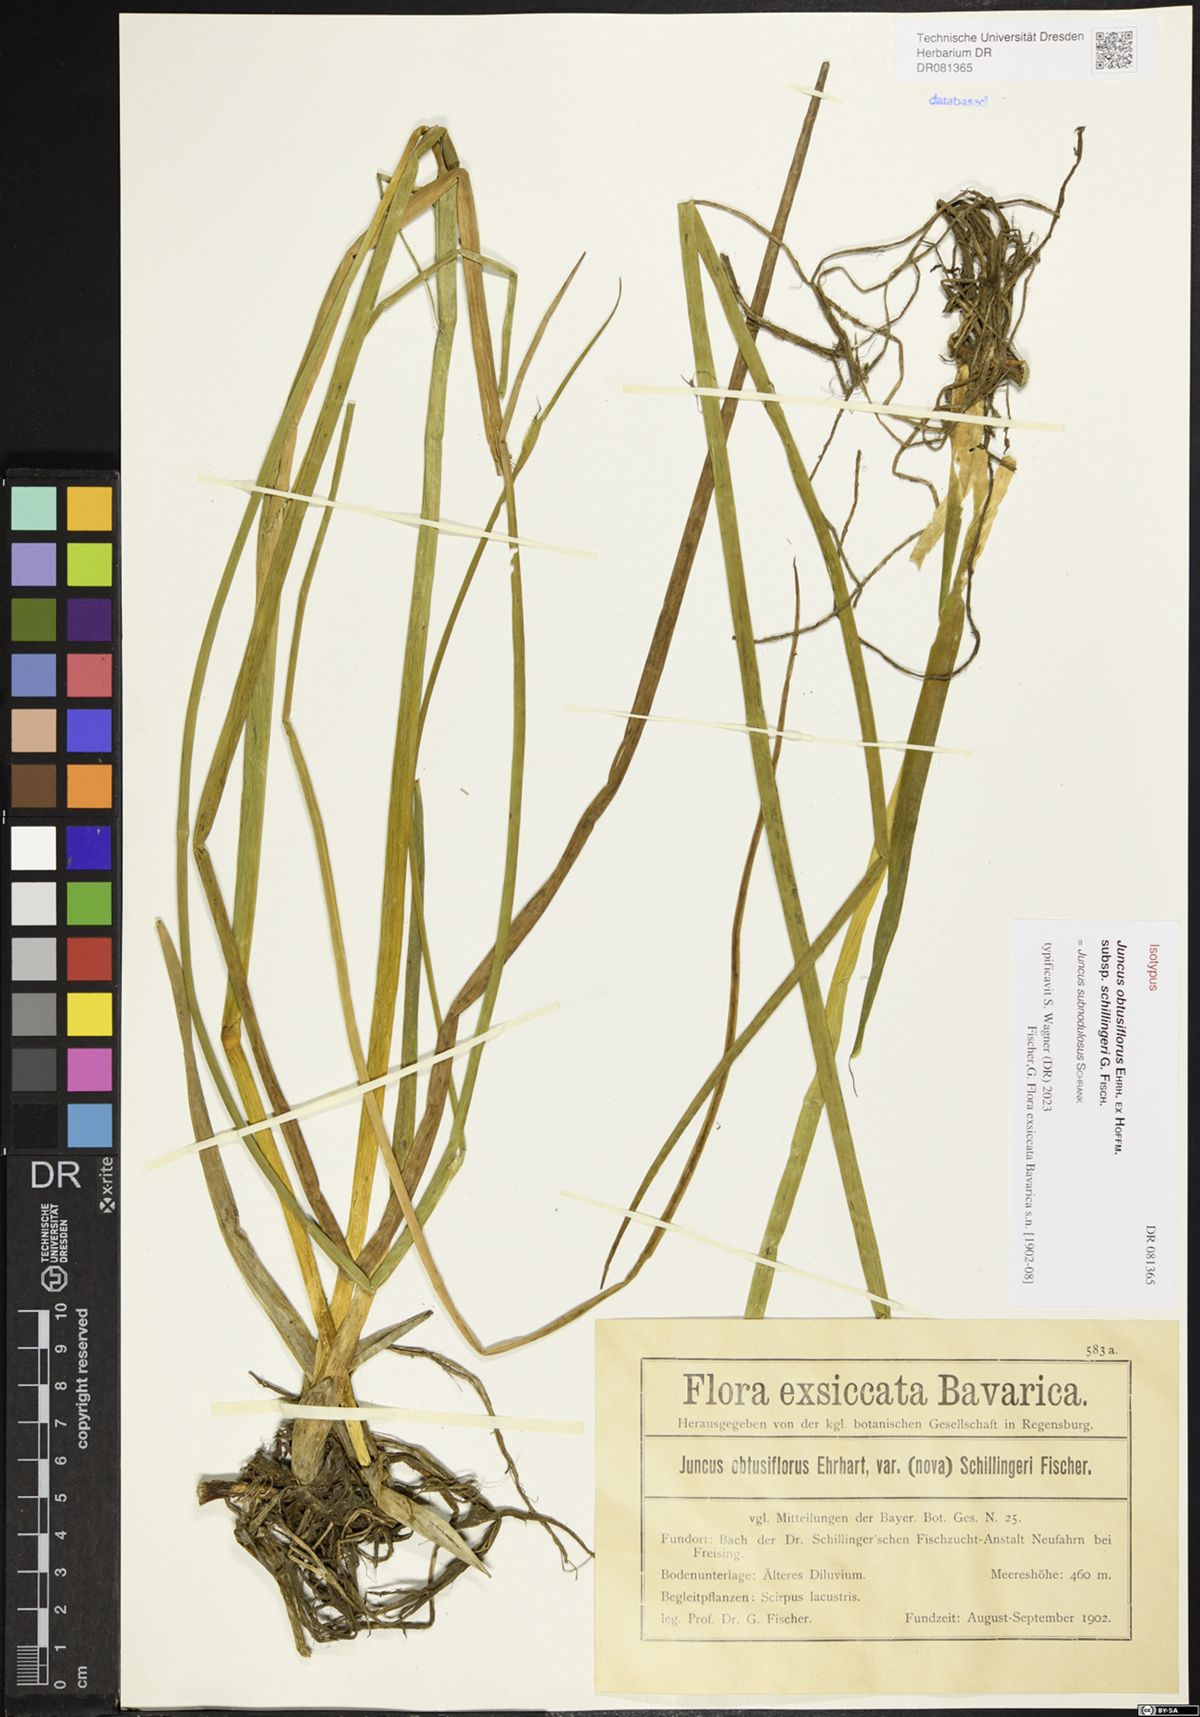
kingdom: Plantae
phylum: Tracheophyta
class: Liliopsida
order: Poales
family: Juncaceae
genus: Juncus
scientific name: Juncus subnodulosus
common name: Blunt-flowered rush
